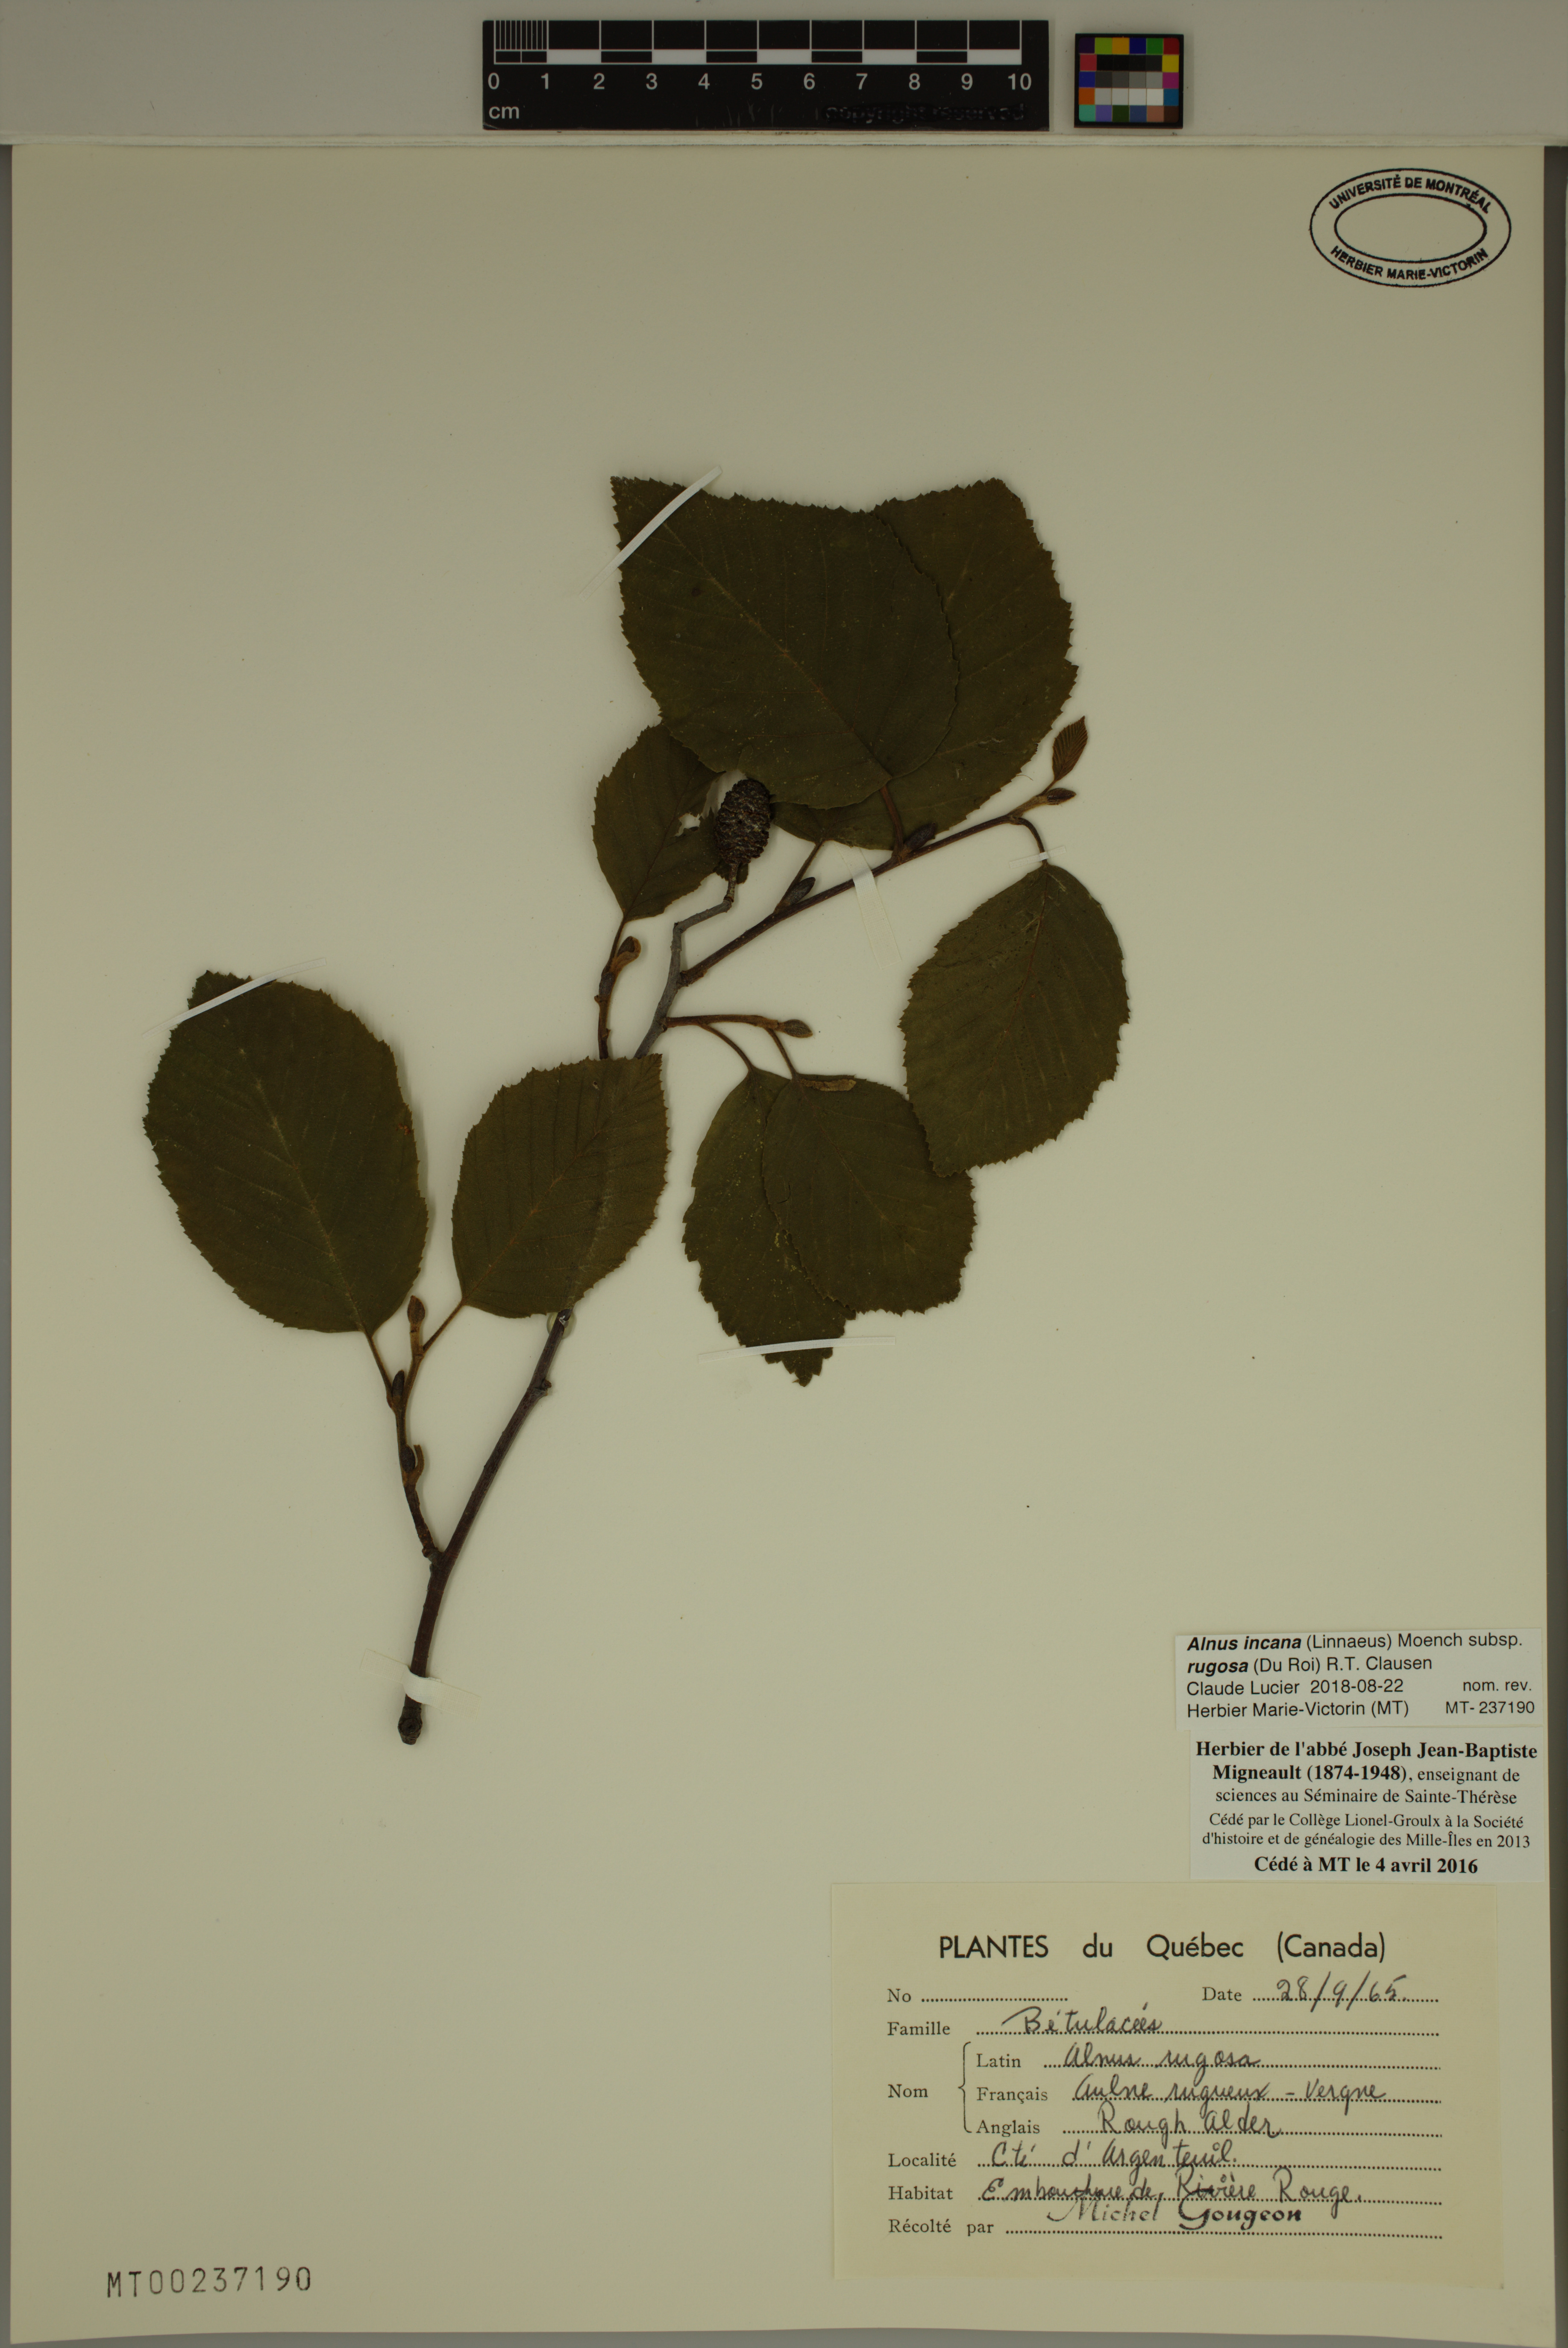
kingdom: Plantae
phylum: Tracheophyta
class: Magnoliopsida
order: Fagales
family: Betulaceae
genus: Alnus
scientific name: Alnus incana
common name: Grey alder
